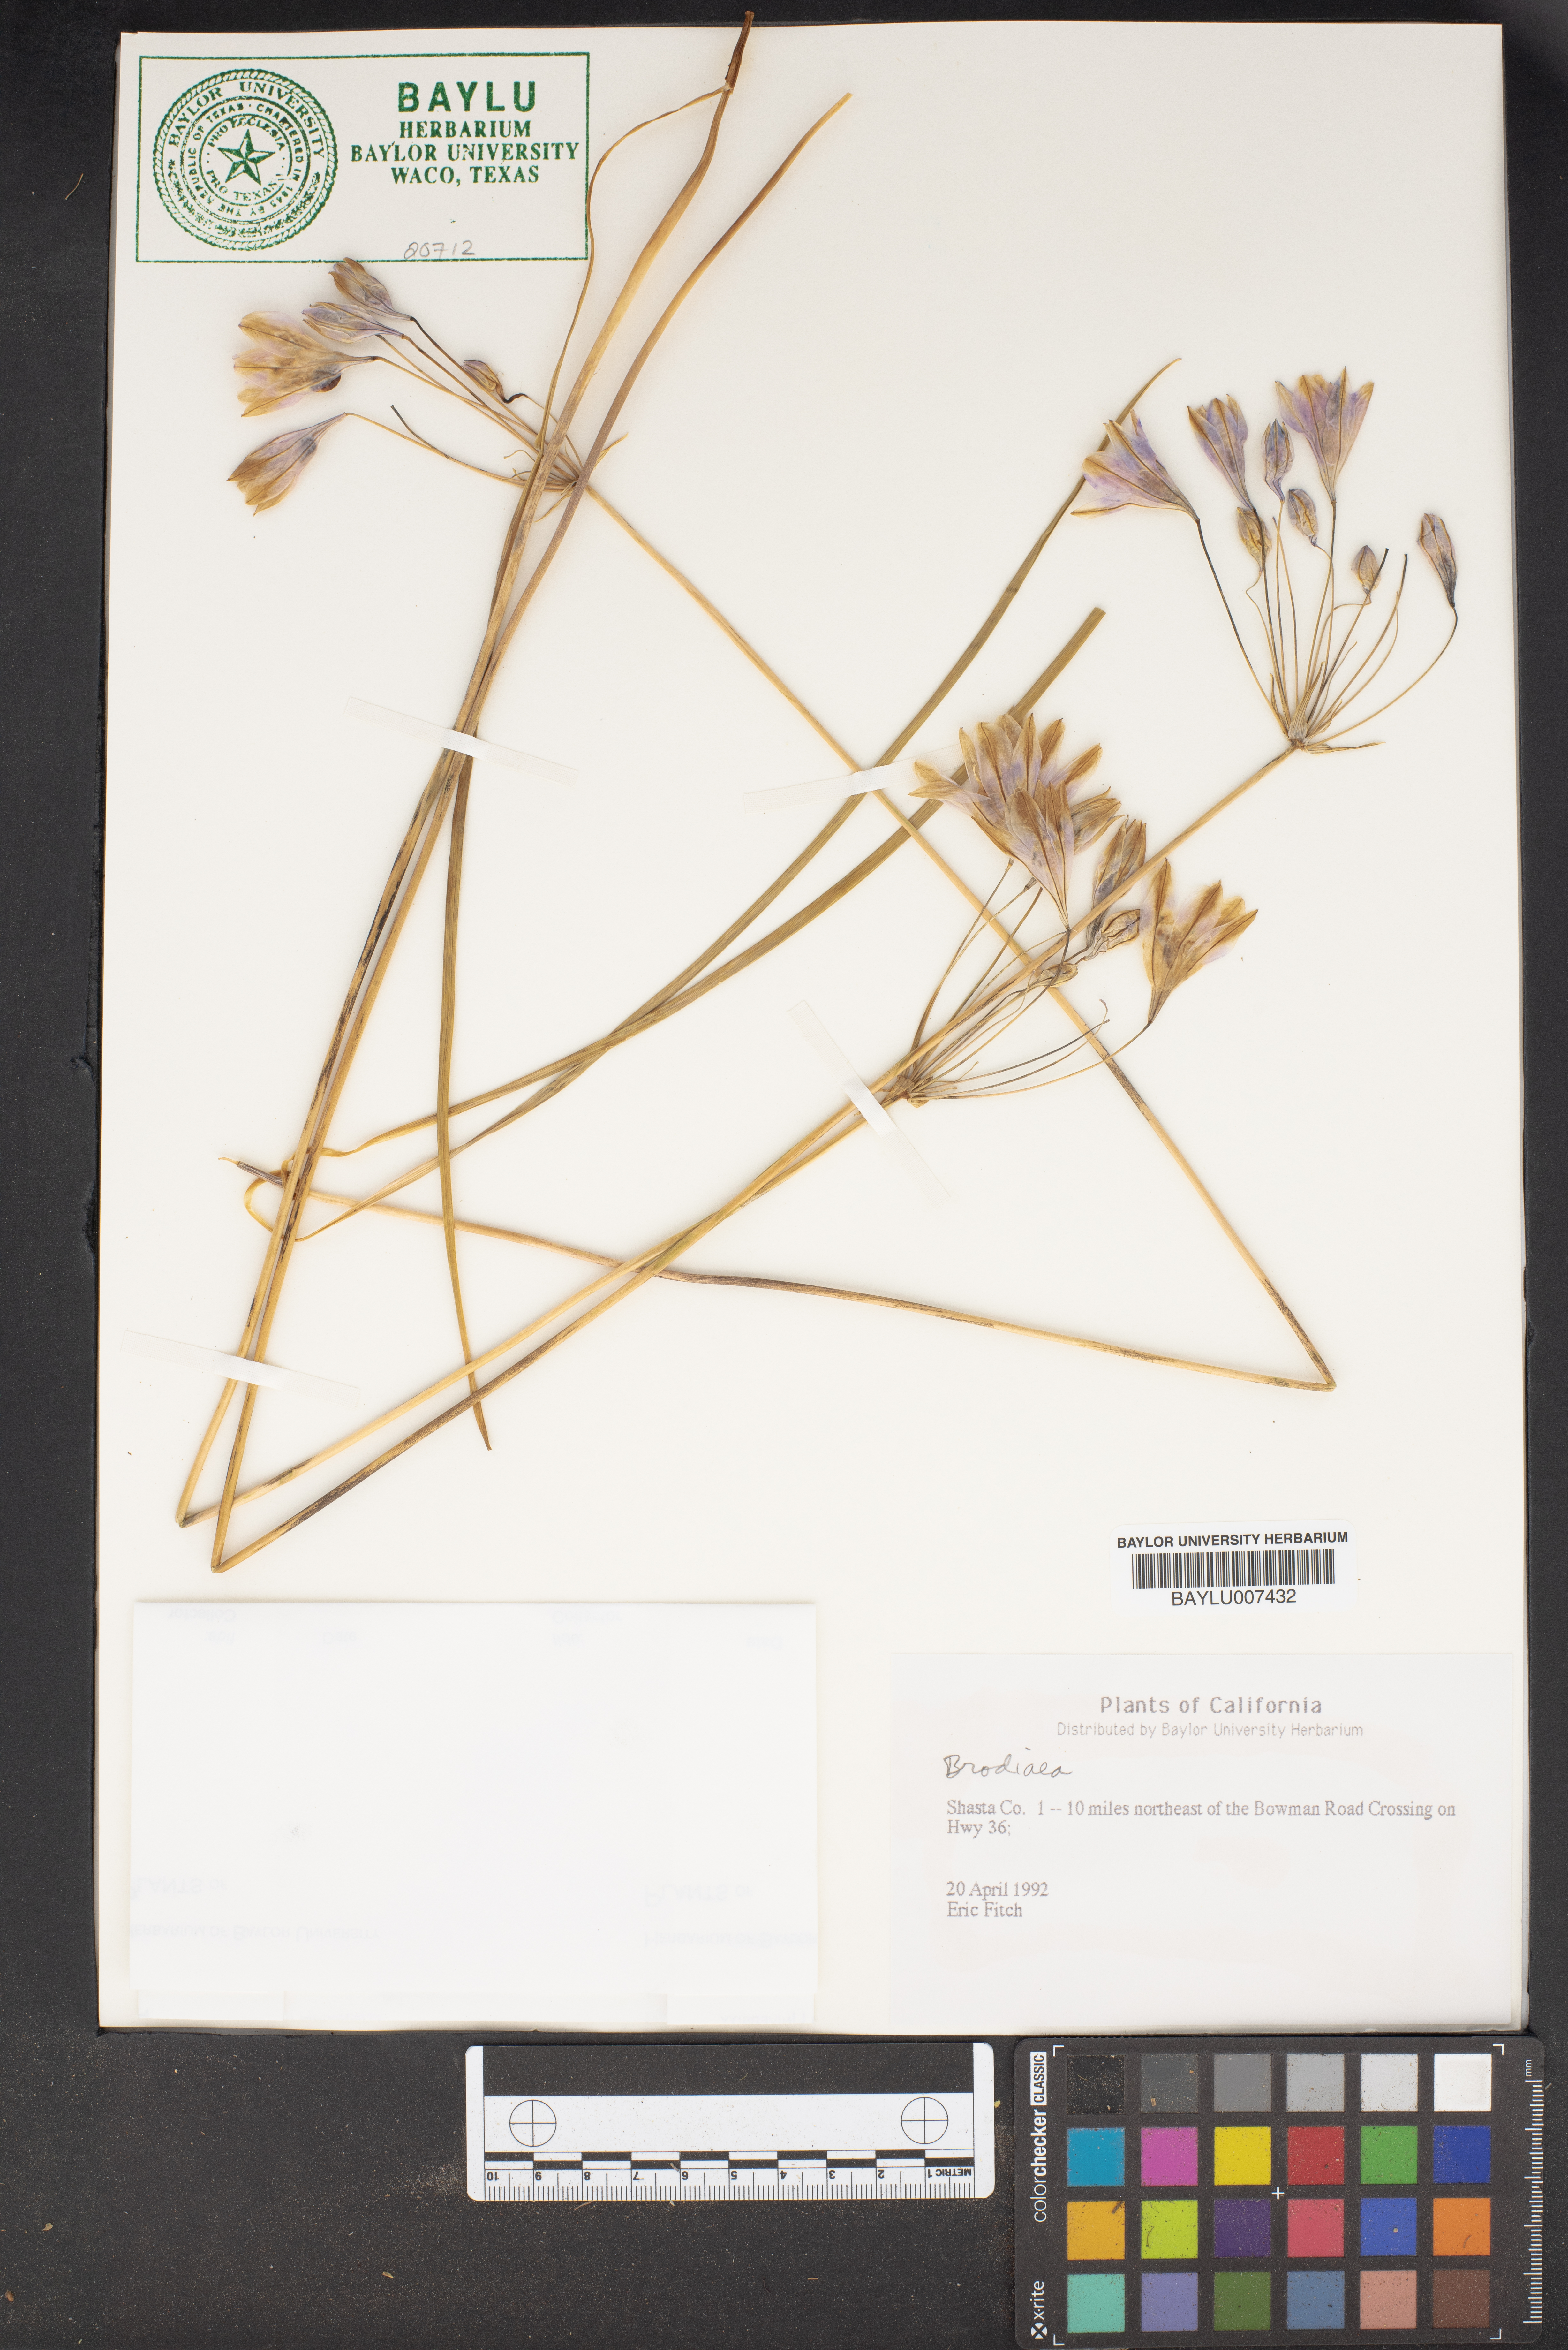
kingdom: Plantae
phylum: Tracheophyta
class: Liliopsida
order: Asparagales
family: Asparagaceae
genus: Brodiaea
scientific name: Brodiaea
